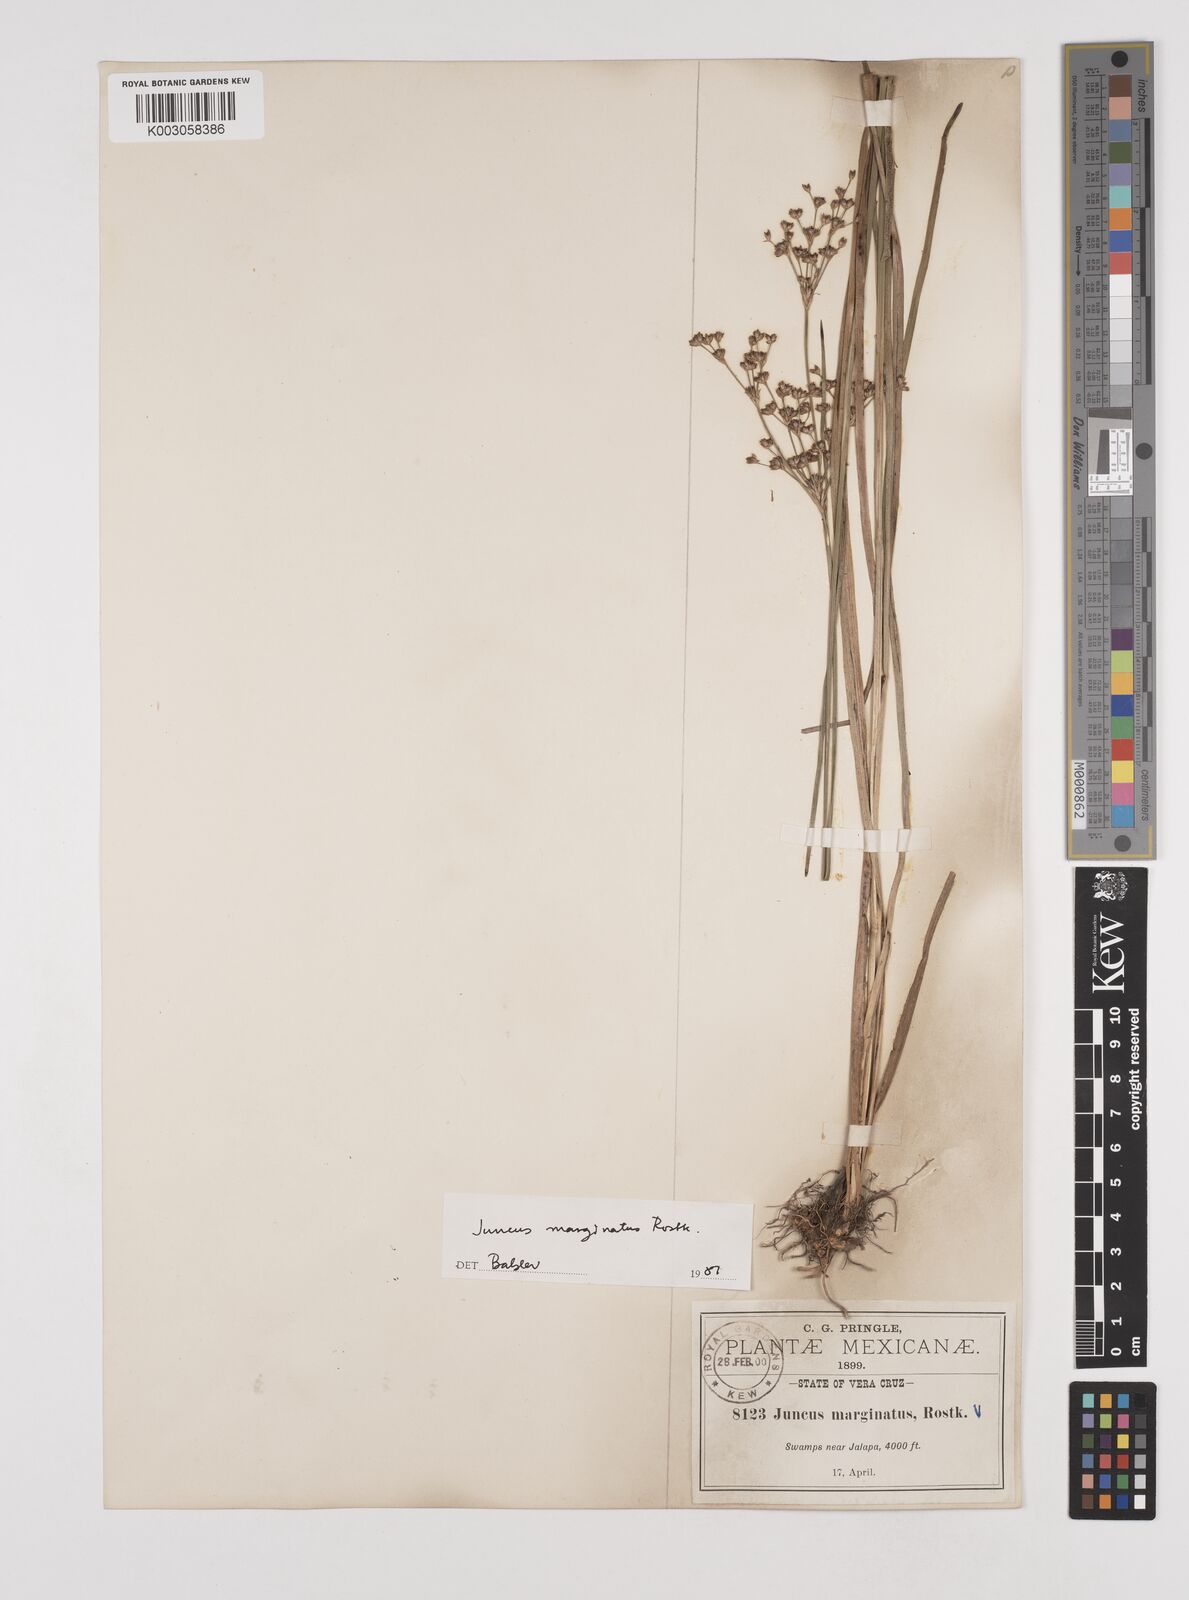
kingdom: Plantae
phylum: Tracheophyta
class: Liliopsida
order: Poales
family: Juncaceae
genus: Juncus
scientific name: Juncus marginatus
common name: Grass-leaf rush
